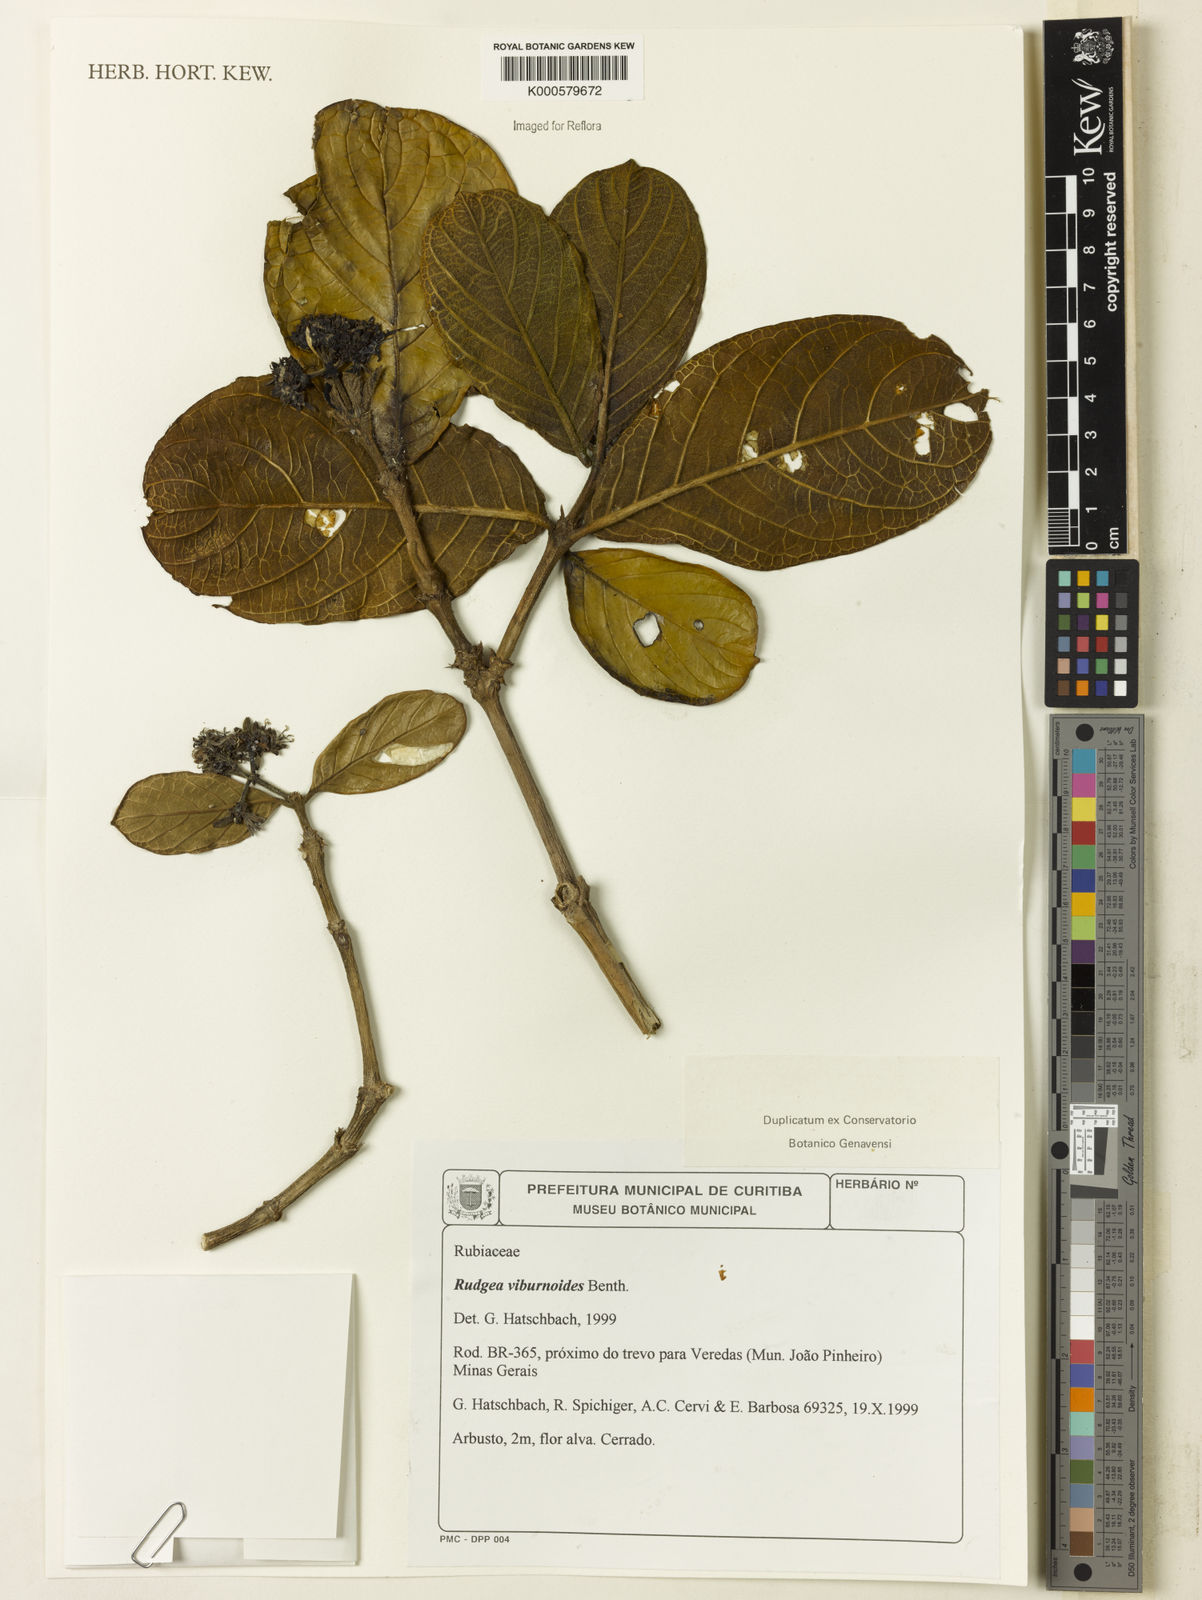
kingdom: Plantae
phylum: Tracheophyta
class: Magnoliopsida
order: Gentianales
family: Rubiaceae
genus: Rudgea
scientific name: Rudgea viburnoides
